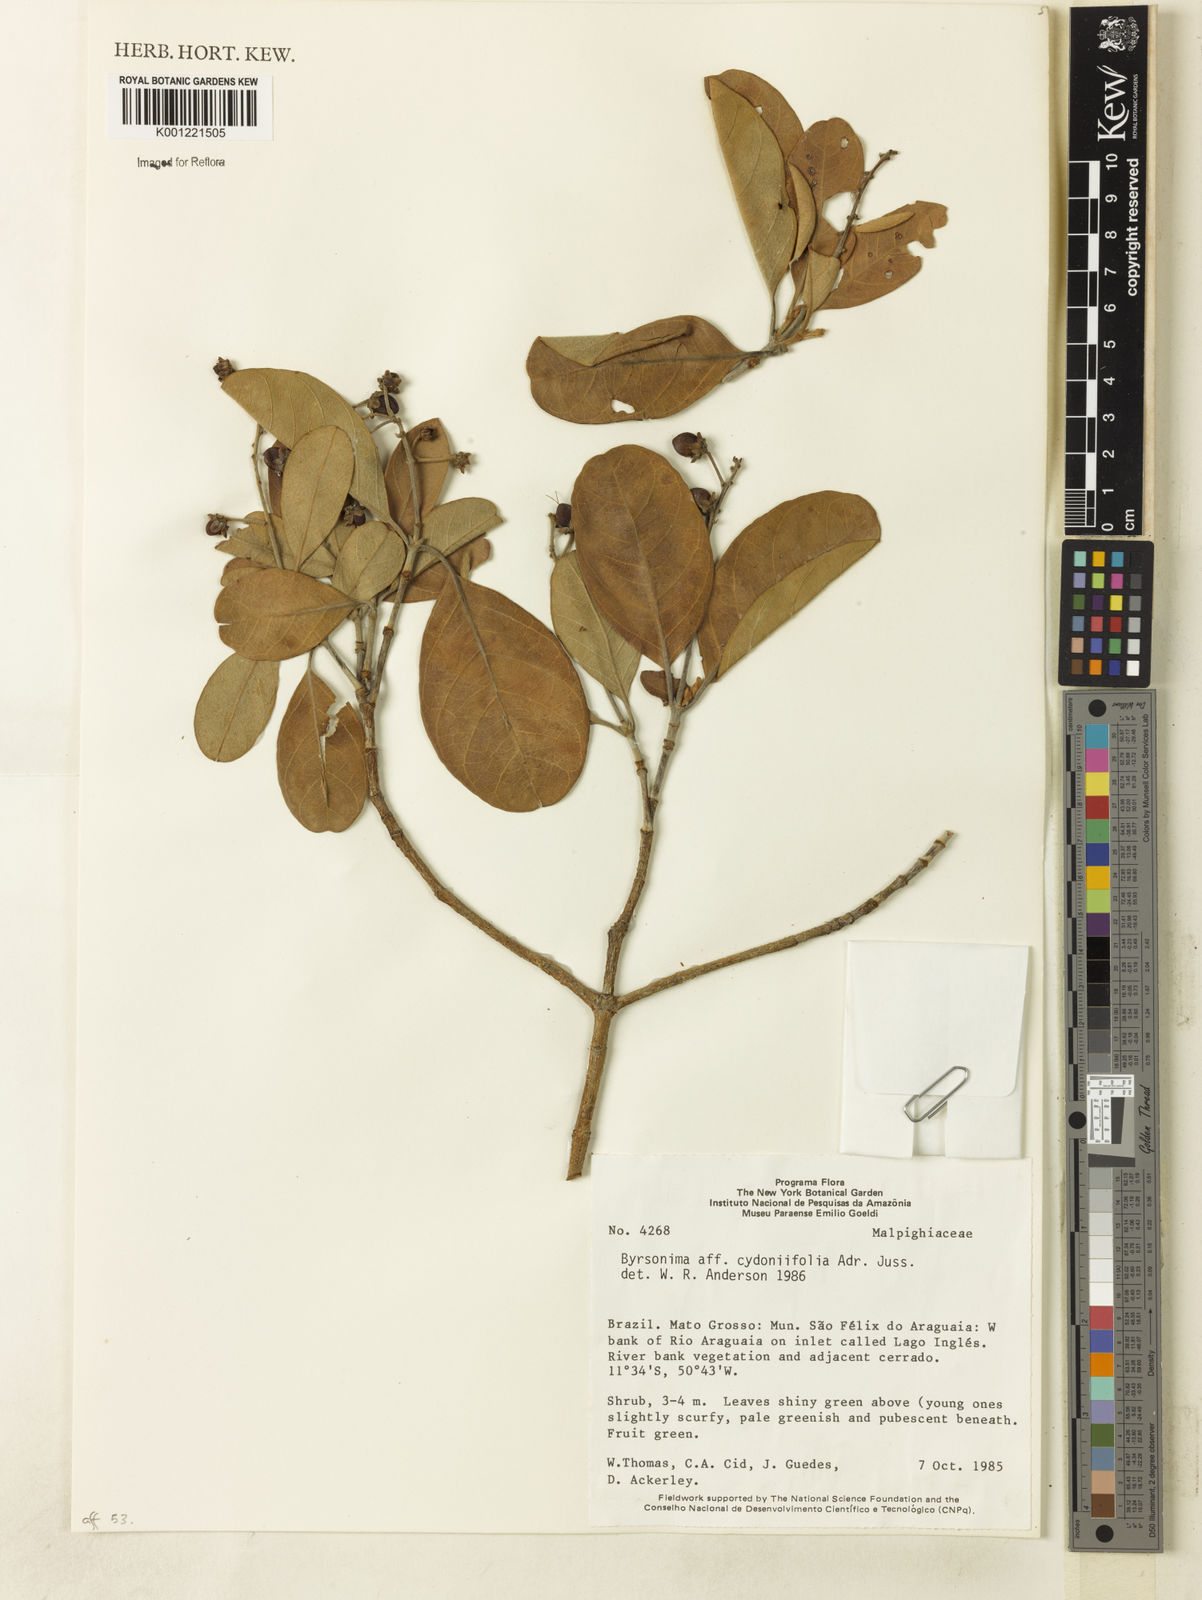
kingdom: Plantae
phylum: Tracheophyta
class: Magnoliopsida
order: Malpighiales
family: Malpighiaceae
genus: Byrsonima
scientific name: Byrsonima cydoniifolia
